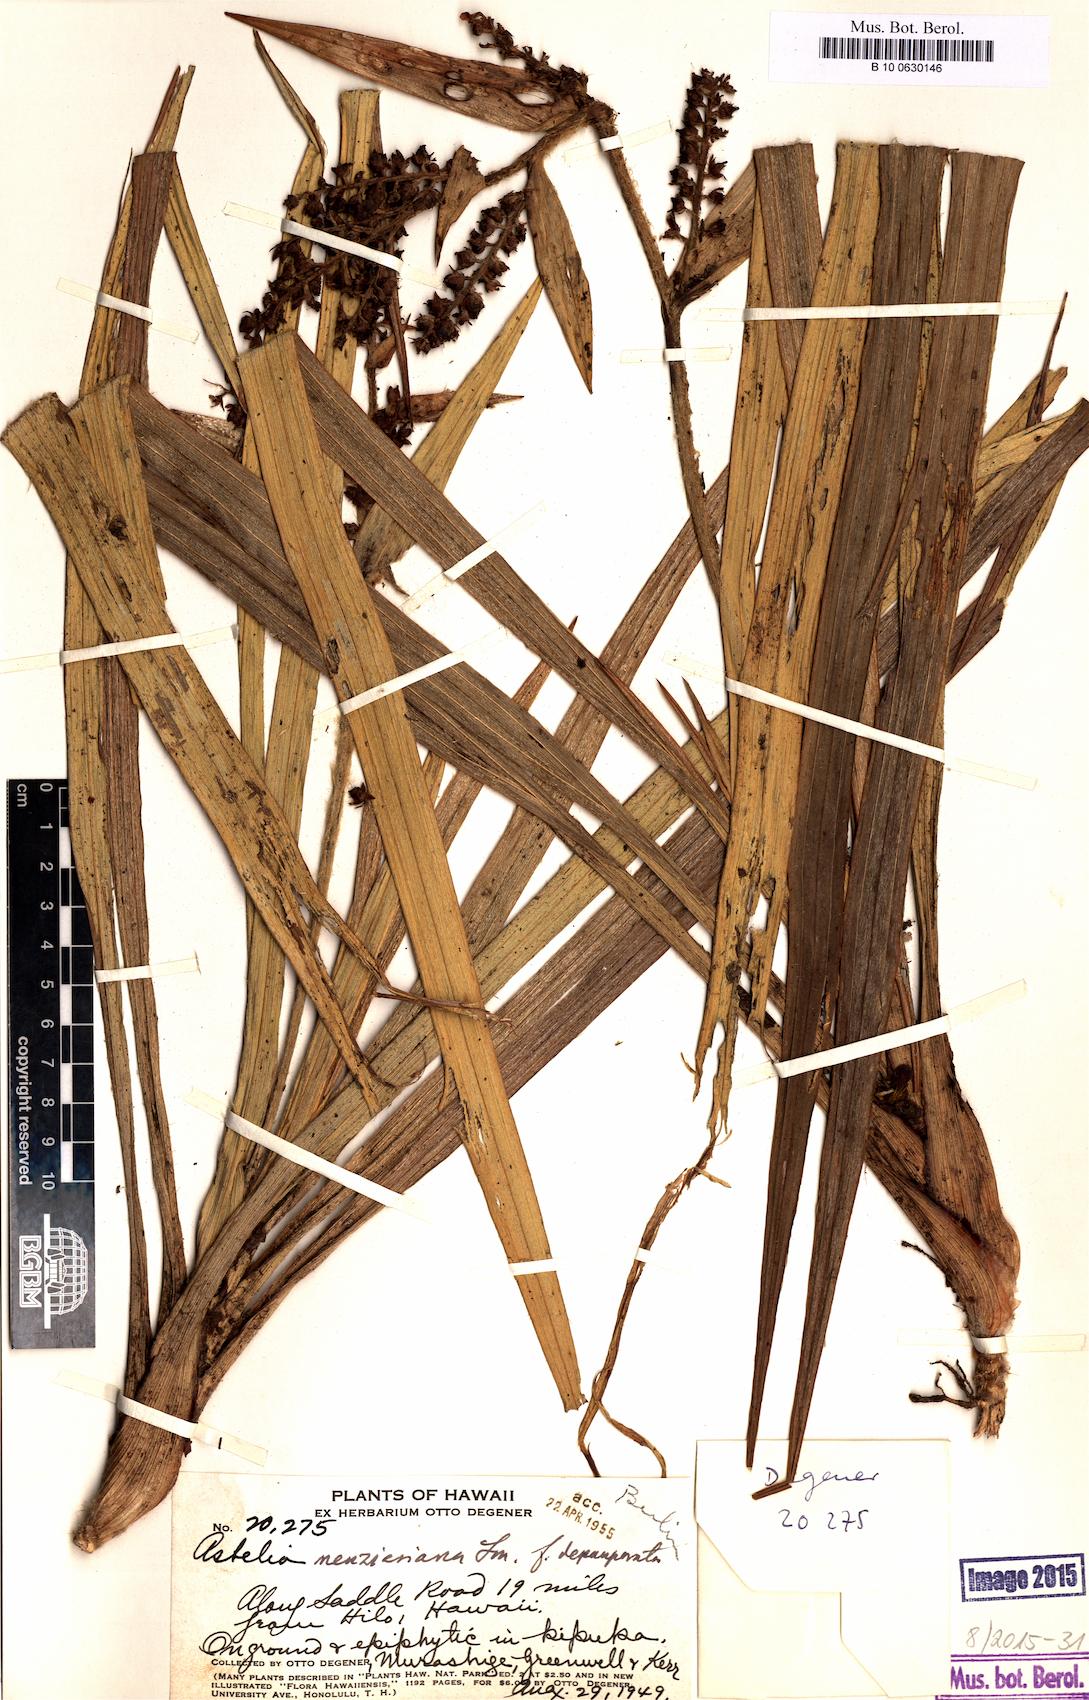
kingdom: Plantae
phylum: Tracheophyta
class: Liliopsida
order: Asparagales
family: Asteliaceae
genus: Astelia
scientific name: Astelia menziesiana
